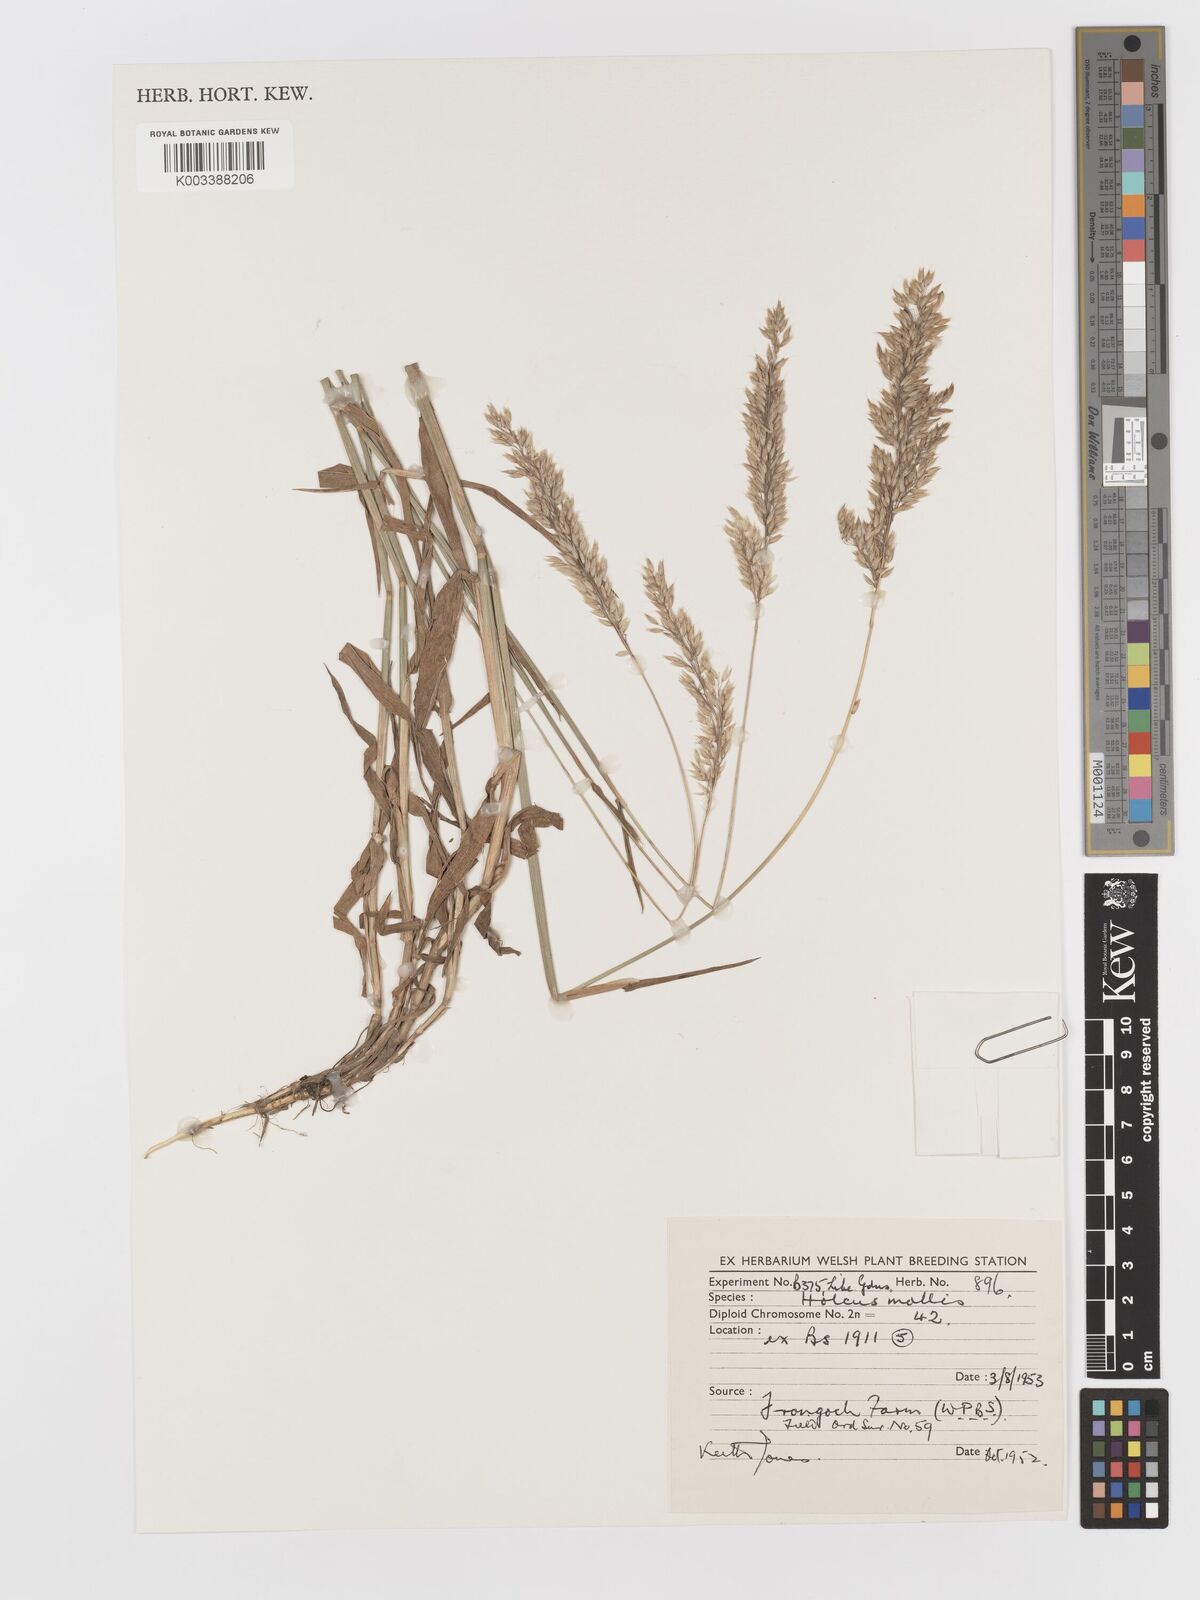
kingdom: Plantae
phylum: Tracheophyta
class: Liliopsida
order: Poales
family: Poaceae
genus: Holcus
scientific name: Holcus mollis
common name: Creeping velvetgrass
